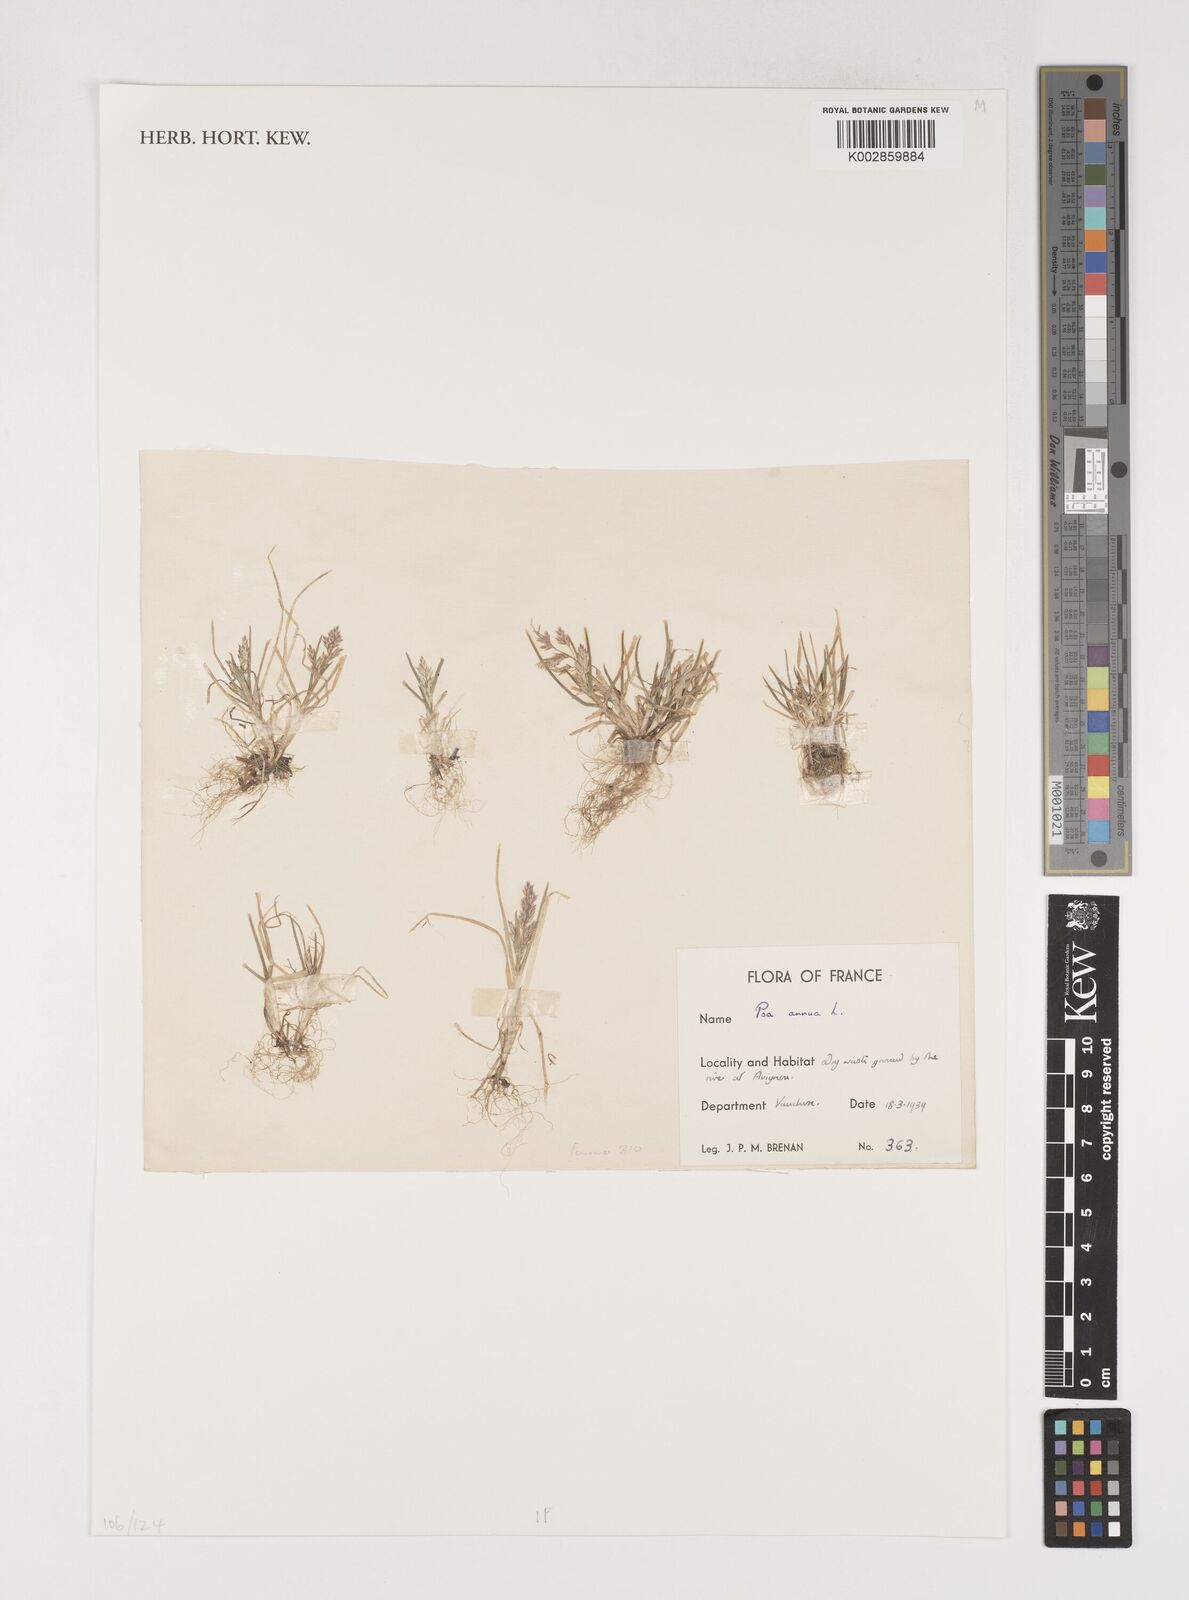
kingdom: Plantae
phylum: Tracheophyta
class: Liliopsida
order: Poales
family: Poaceae
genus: Poa
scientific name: Poa annua
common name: Annual bluegrass
